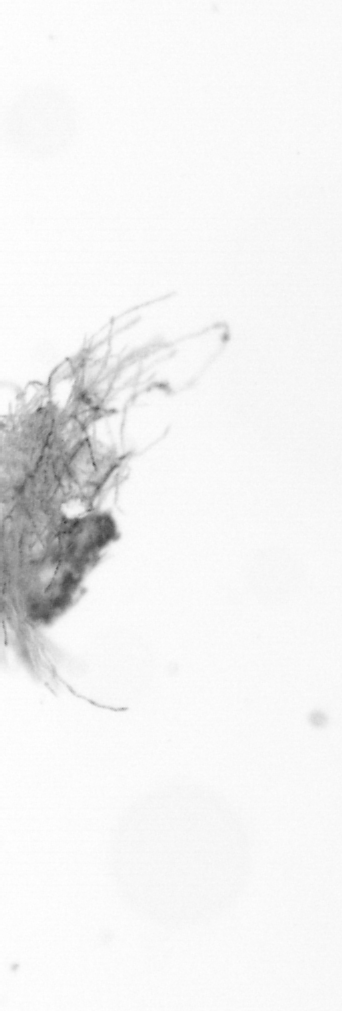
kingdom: Bacteria
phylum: Cyanobacteria
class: Cyanobacteriia
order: Cyanobacteriales
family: Microcoleaceae
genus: Trichodesmium
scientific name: Trichodesmium
